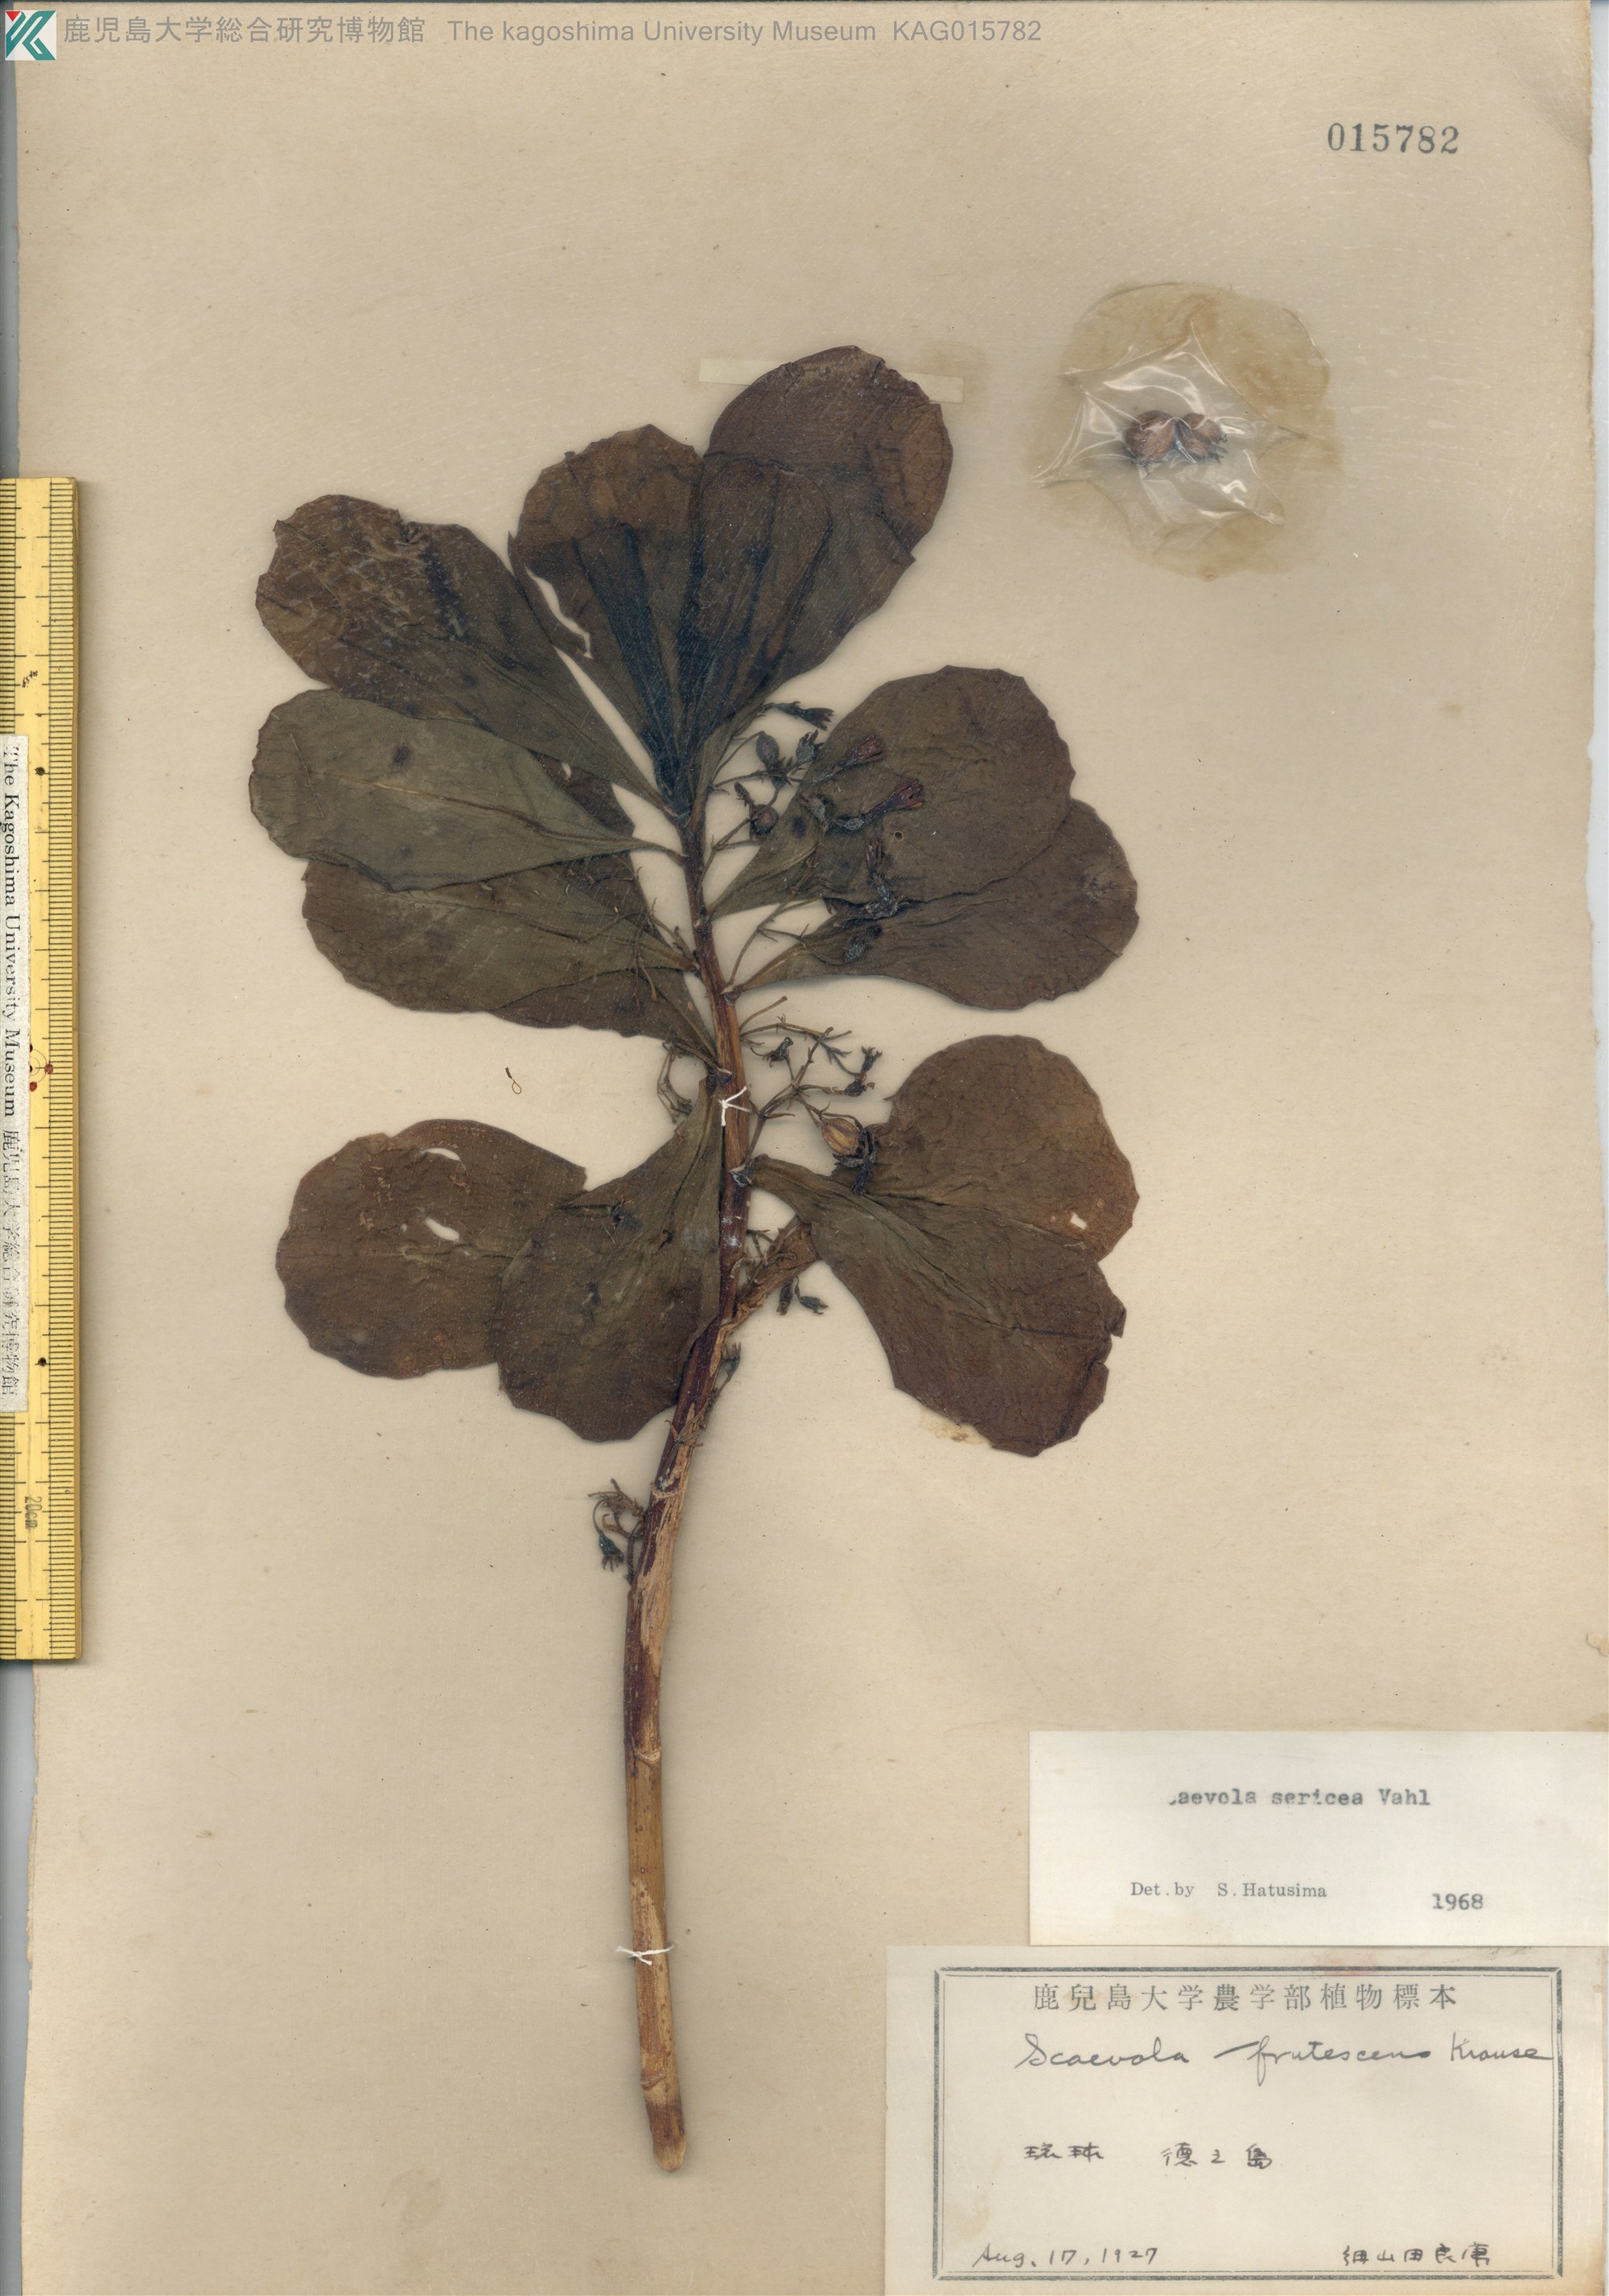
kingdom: Plantae
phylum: Tracheophyta
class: Magnoliopsida
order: Asterales
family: Goodeniaceae
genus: Scaevola
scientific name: Scaevola taccada
